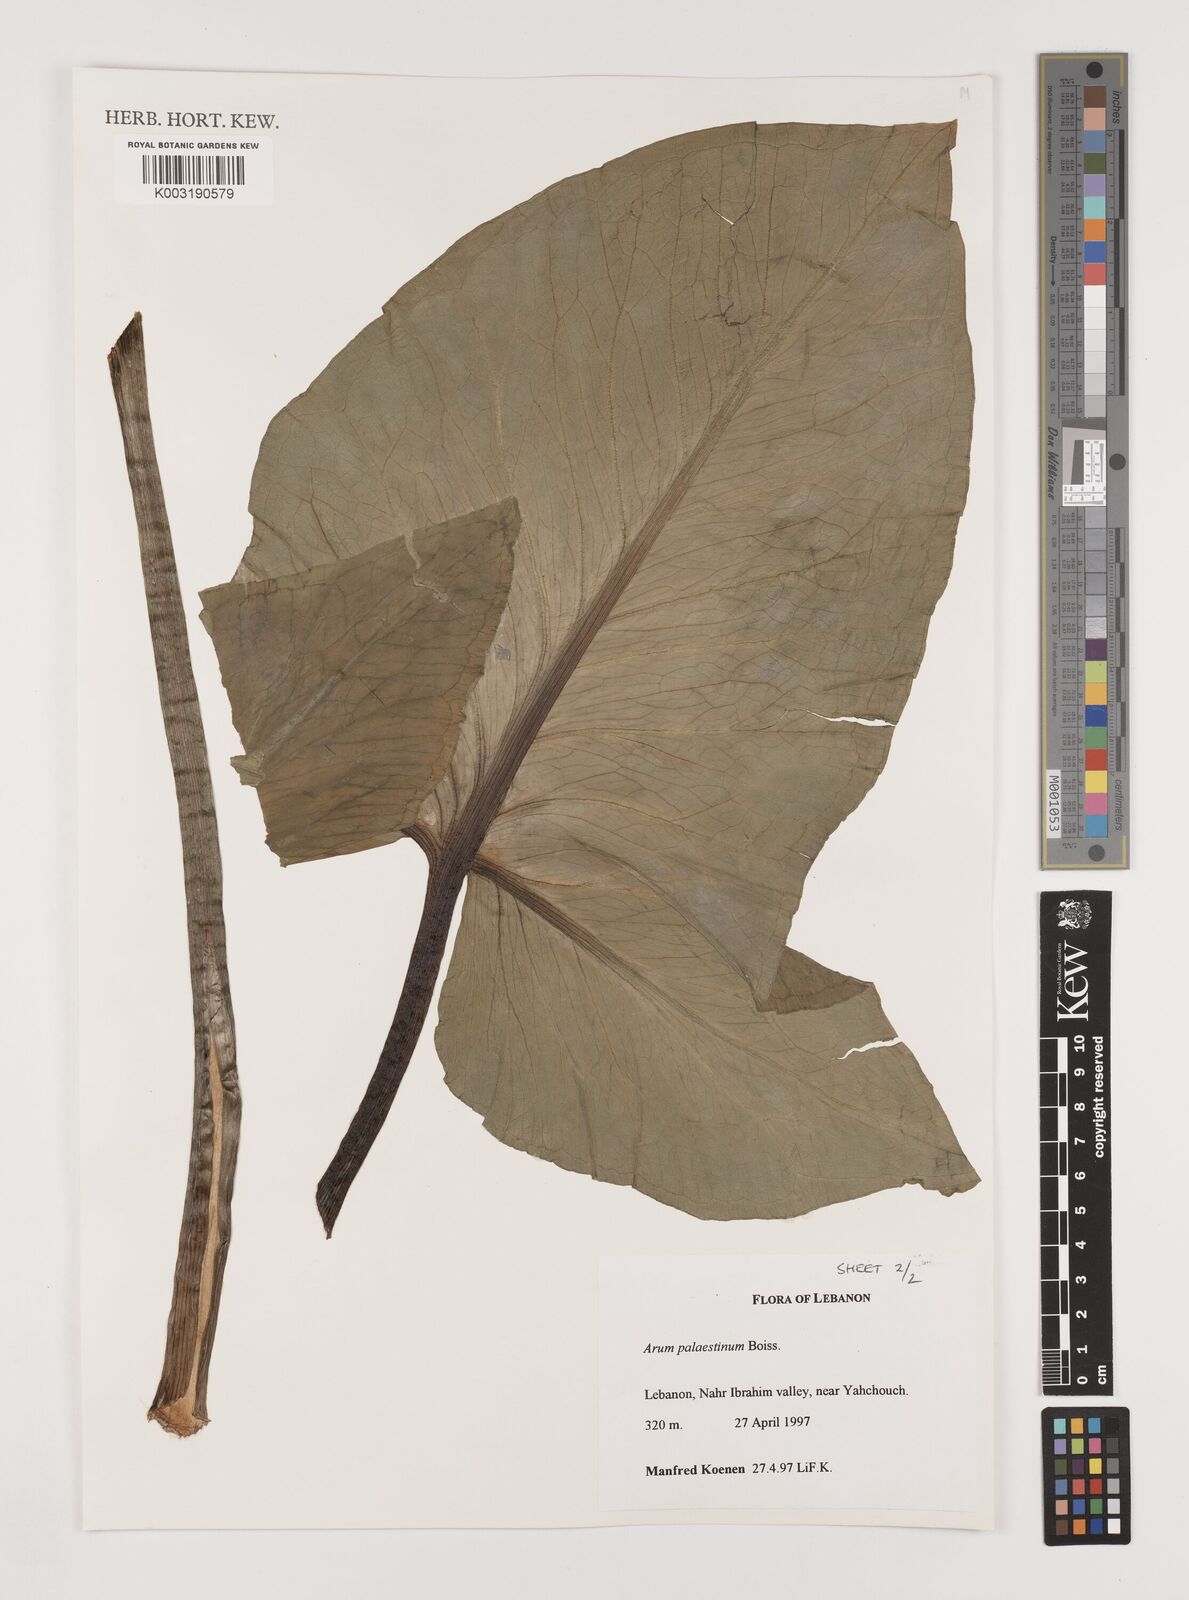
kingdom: Plantae
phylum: Tracheophyta
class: Liliopsida
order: Alismatales
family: Araceae
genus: Arum
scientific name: Arum palaestinum
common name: Solomon's lily
